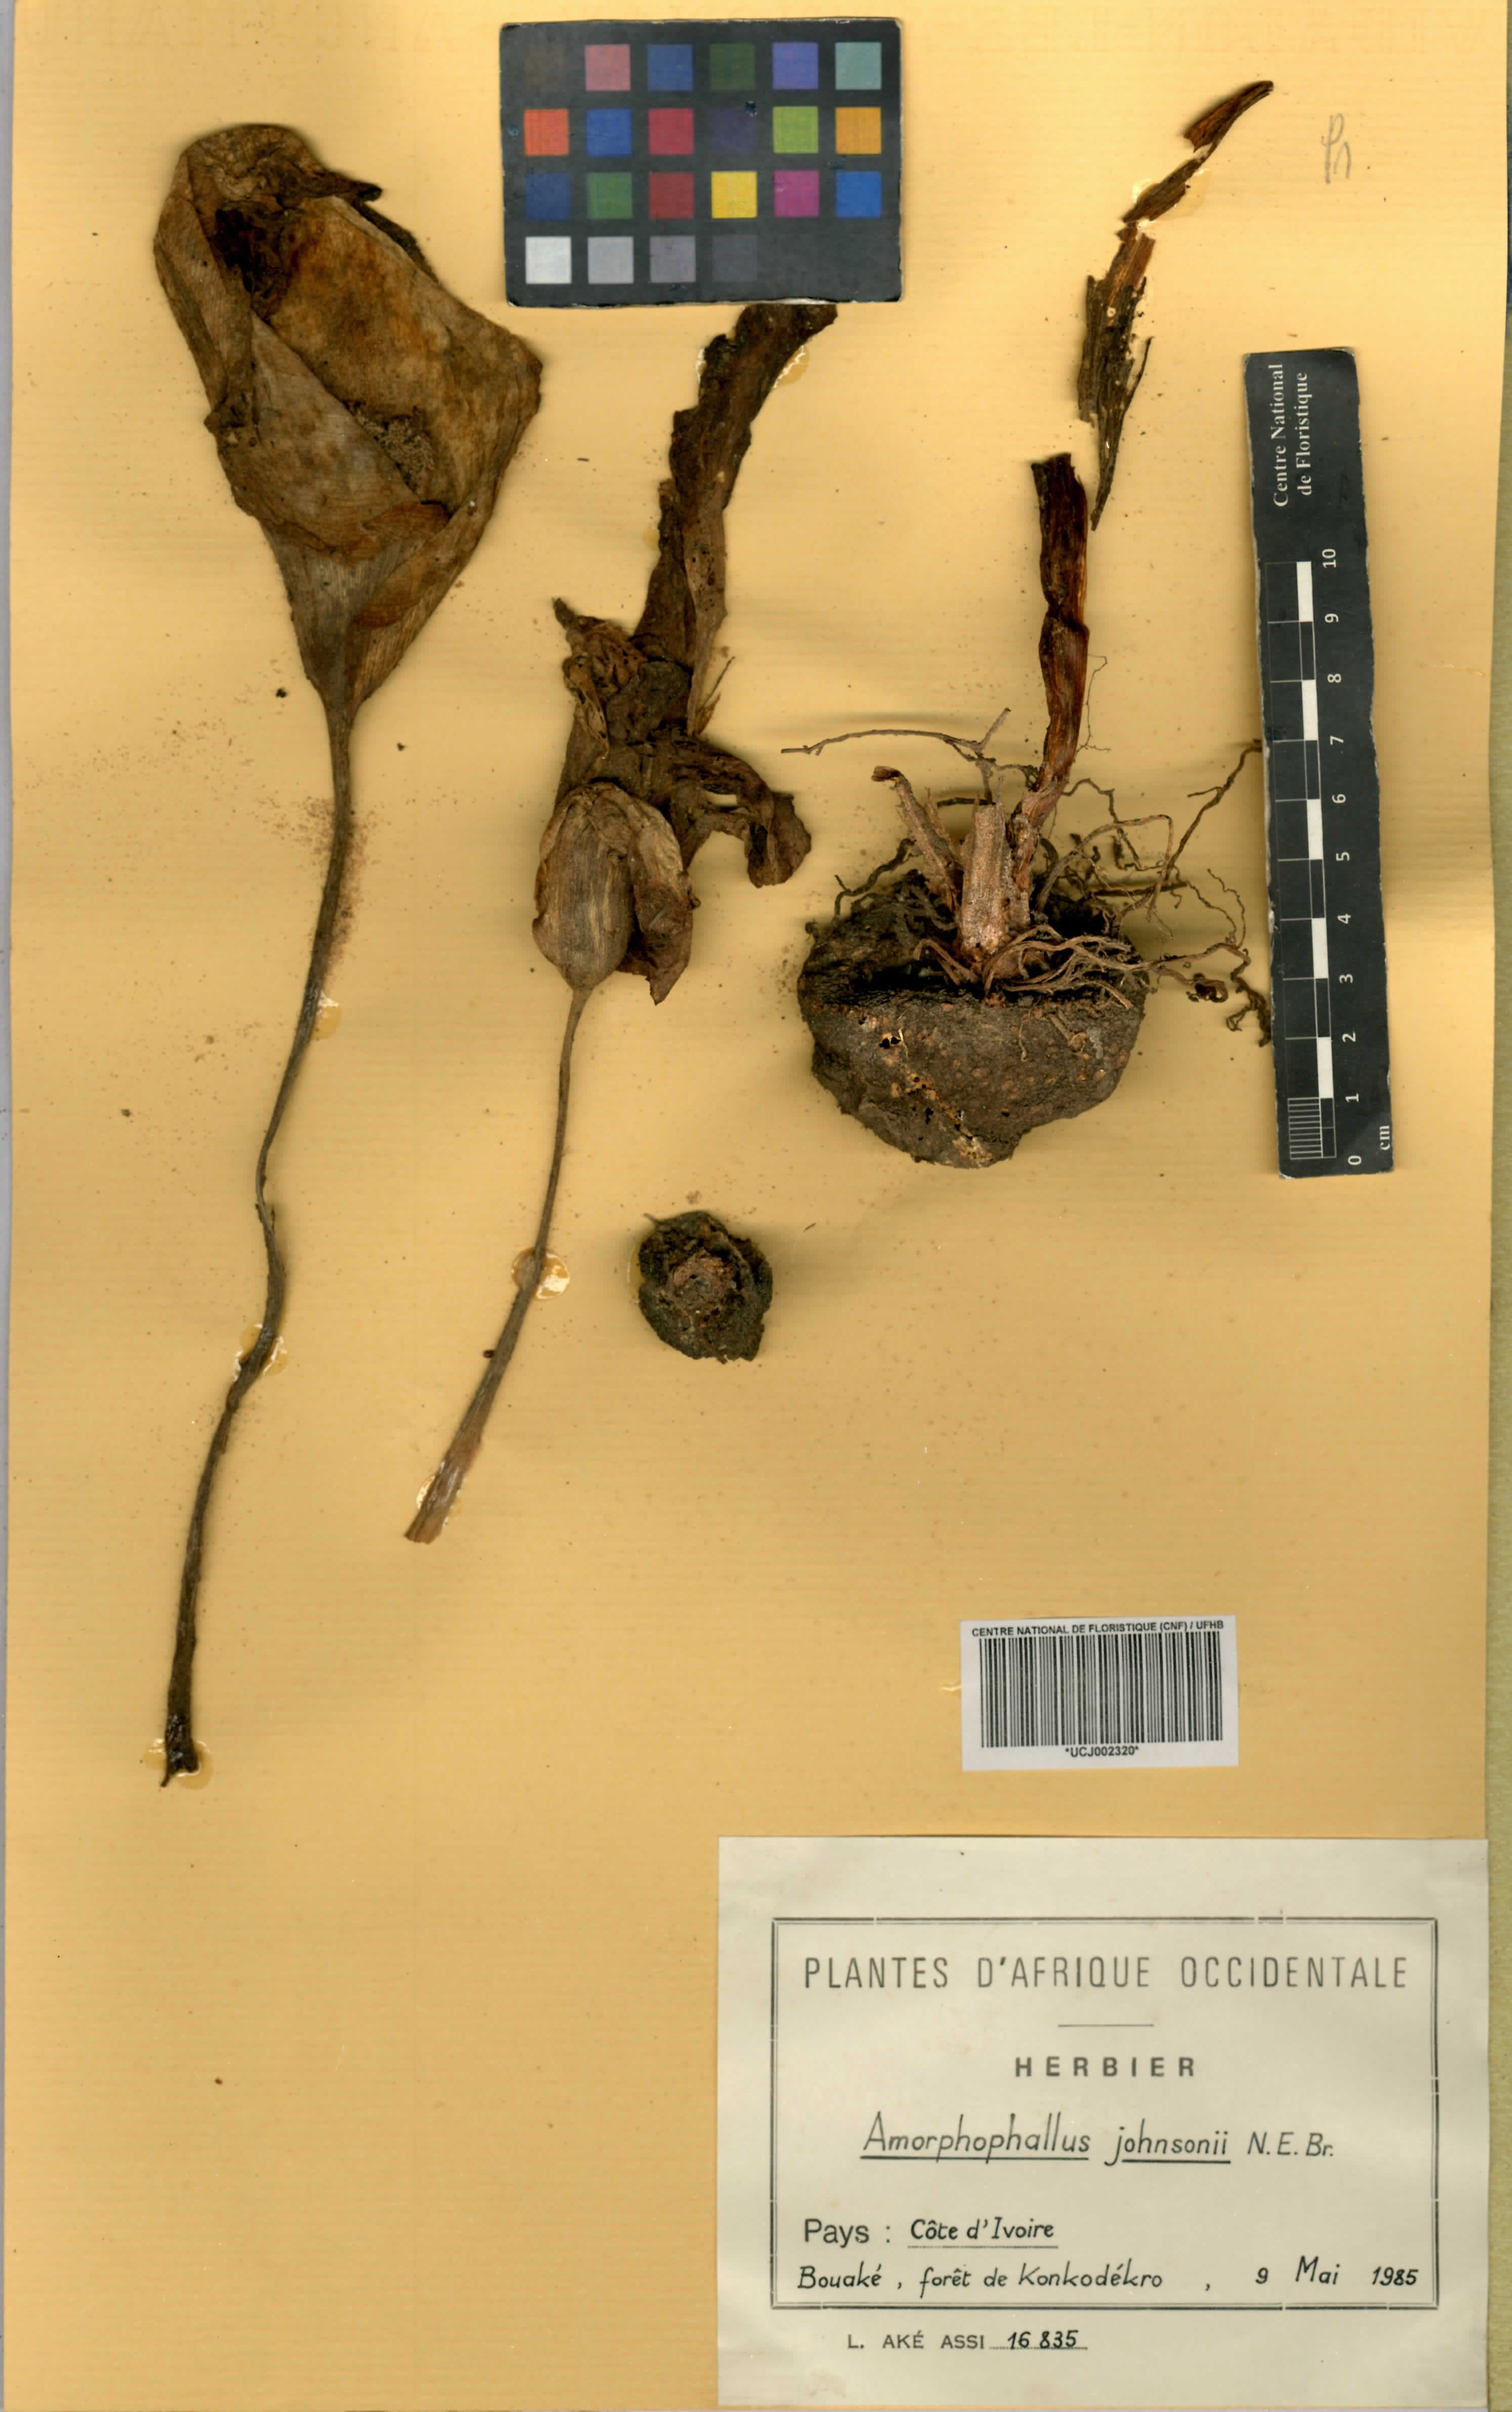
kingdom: Plantae
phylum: Tracheophyta
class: Liliopsida
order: Alismatales
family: Araceae
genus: Amorphophallus
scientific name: Amorphophallus johnsonii
